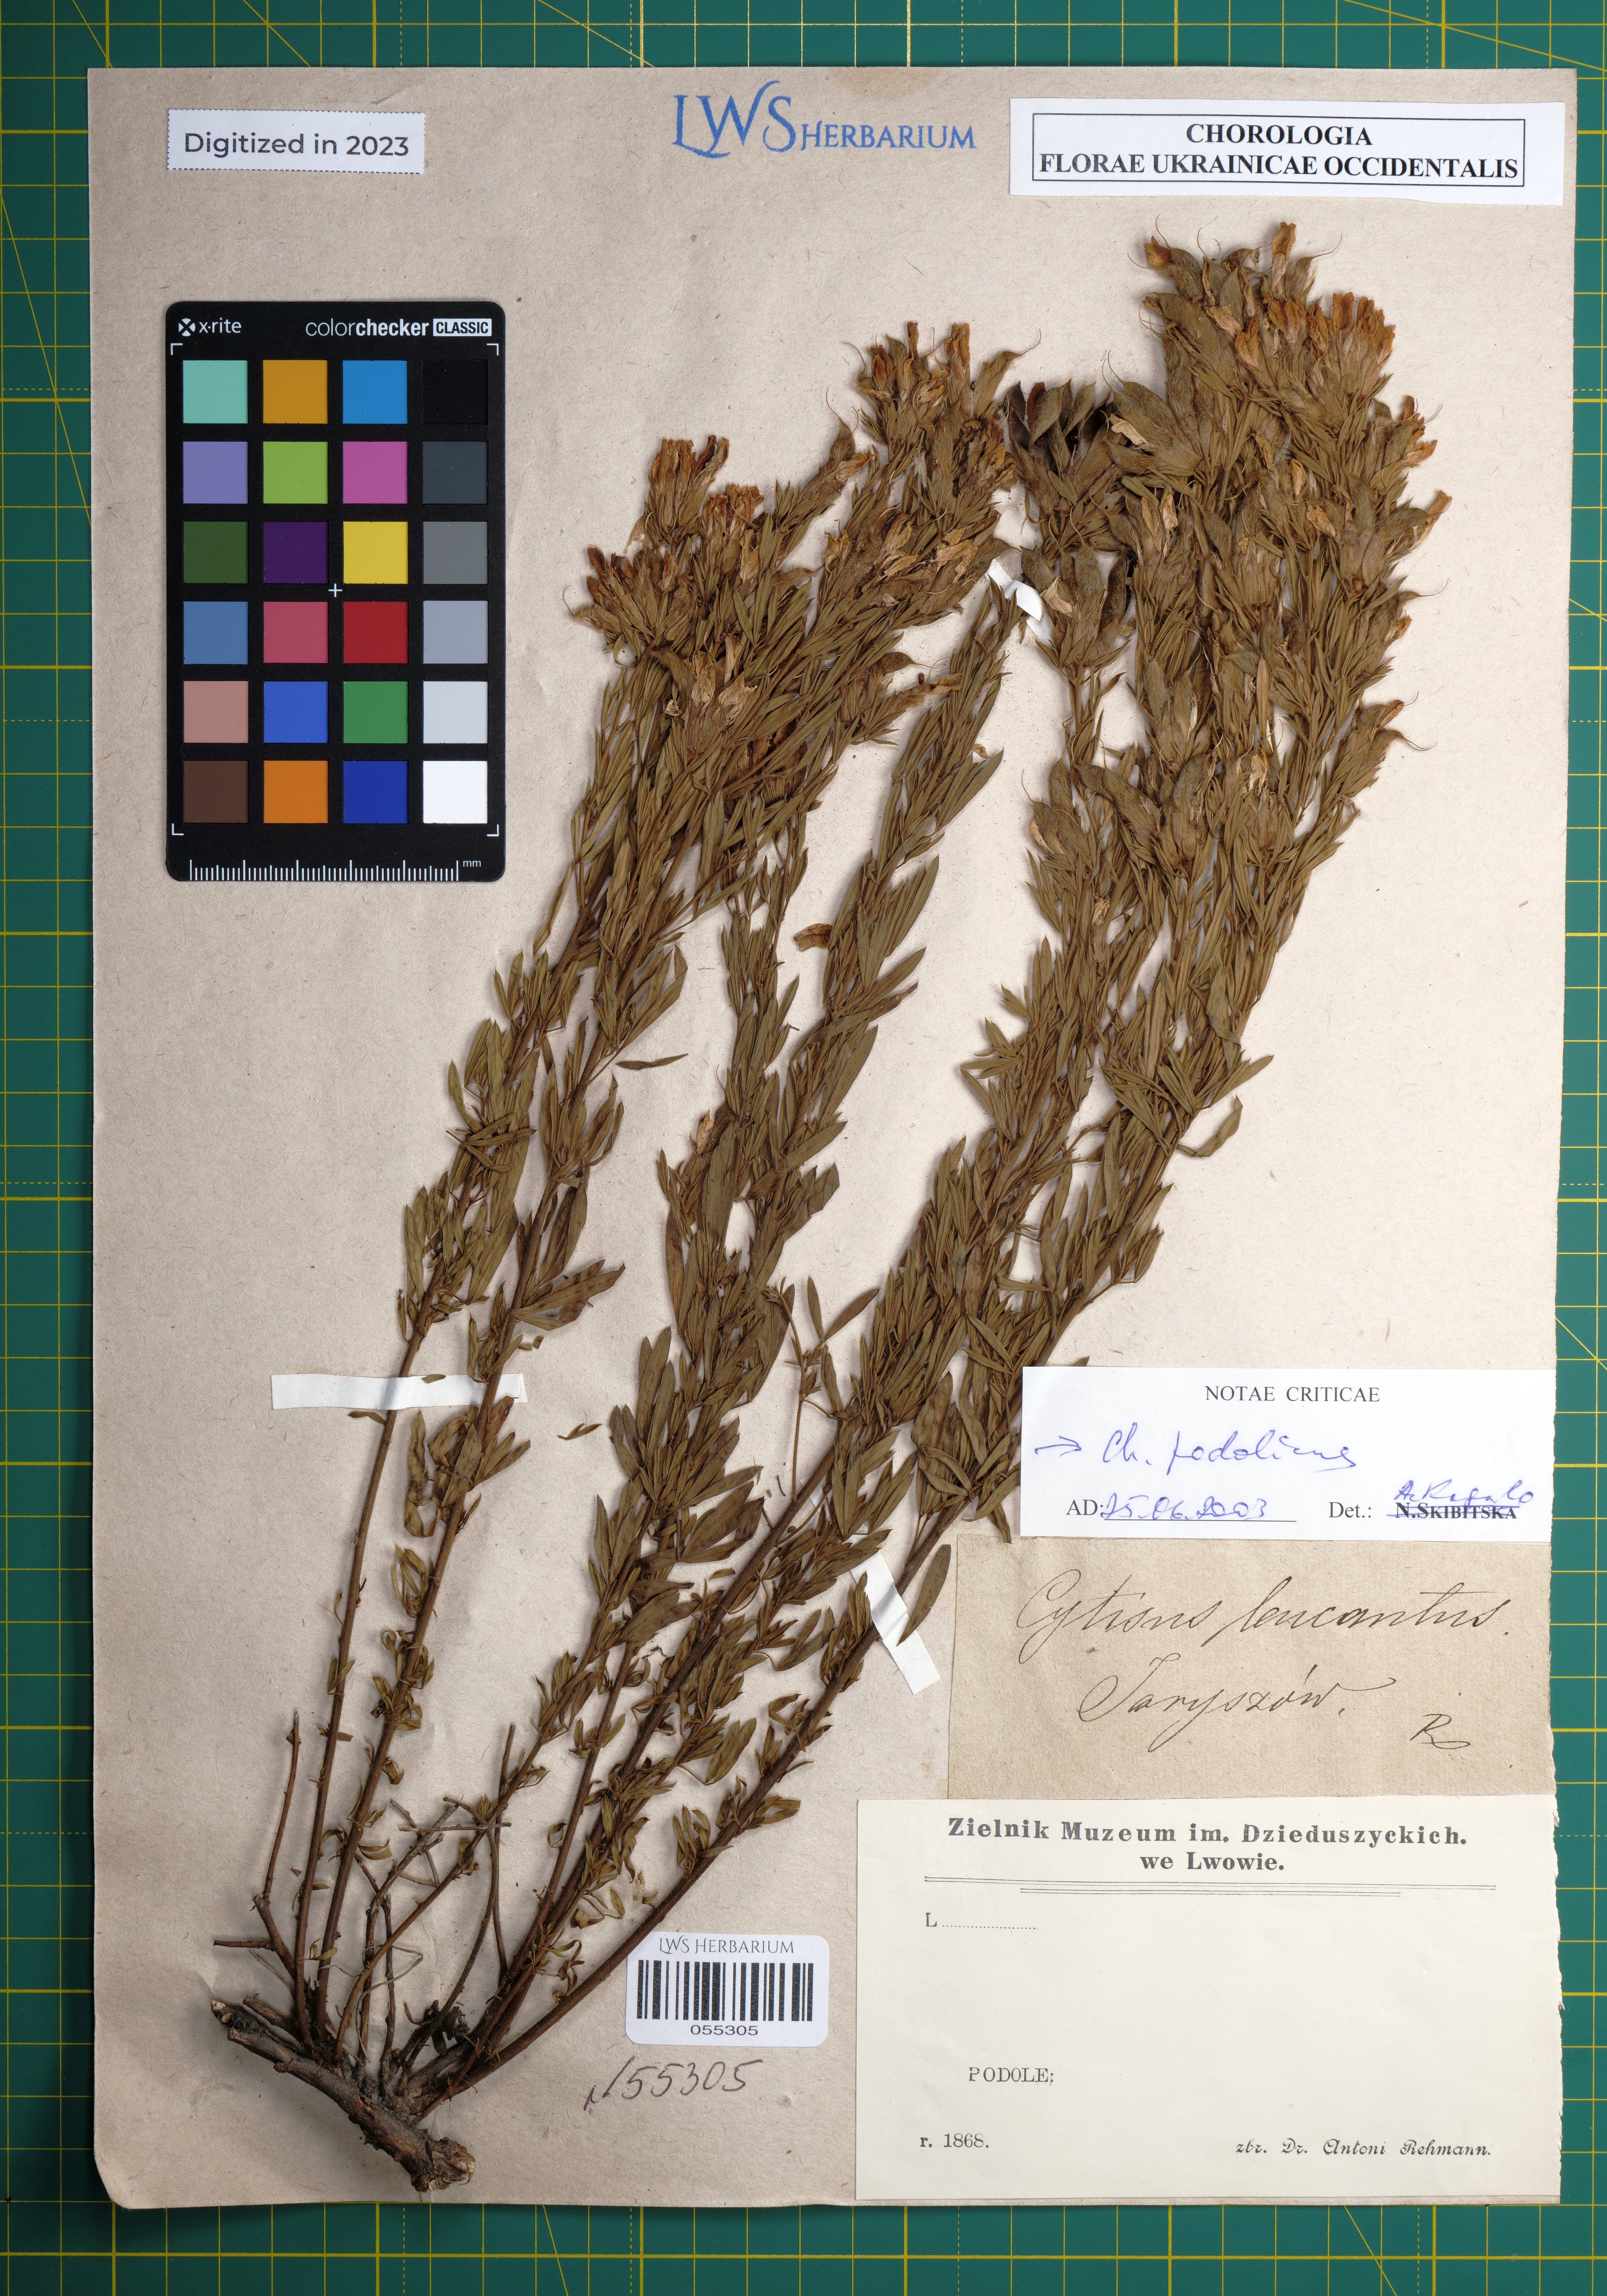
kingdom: Plantae
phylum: Tracheophyta
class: Magnoliopsida
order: Fabales
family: Fabaceae
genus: Chamaecytisus
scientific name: Chamaecytisus albus
